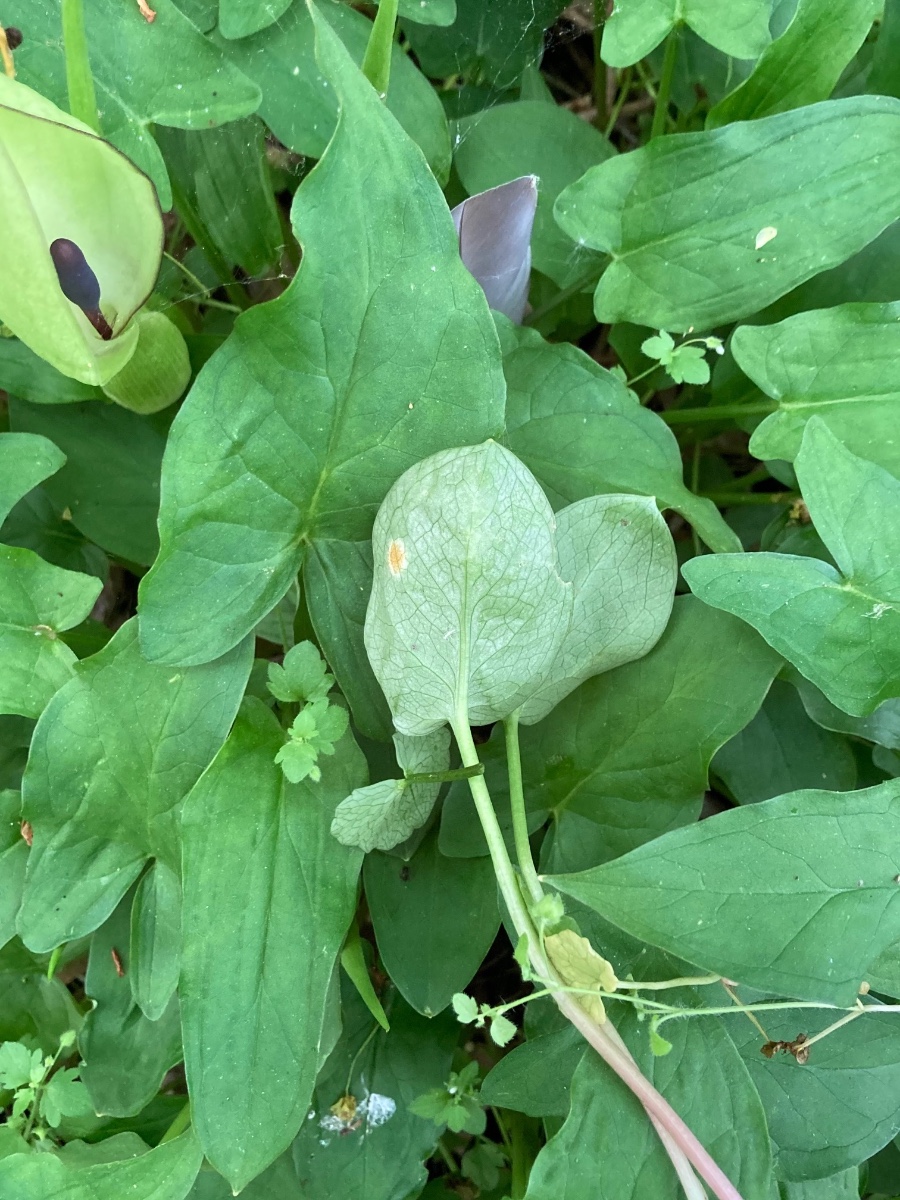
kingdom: Fungi
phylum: Basidiomycota
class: Pucciniomycetes
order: Pucciniales
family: Pucciniaceae
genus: Puccinia
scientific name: Puccinia sessilis
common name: Arum rust
